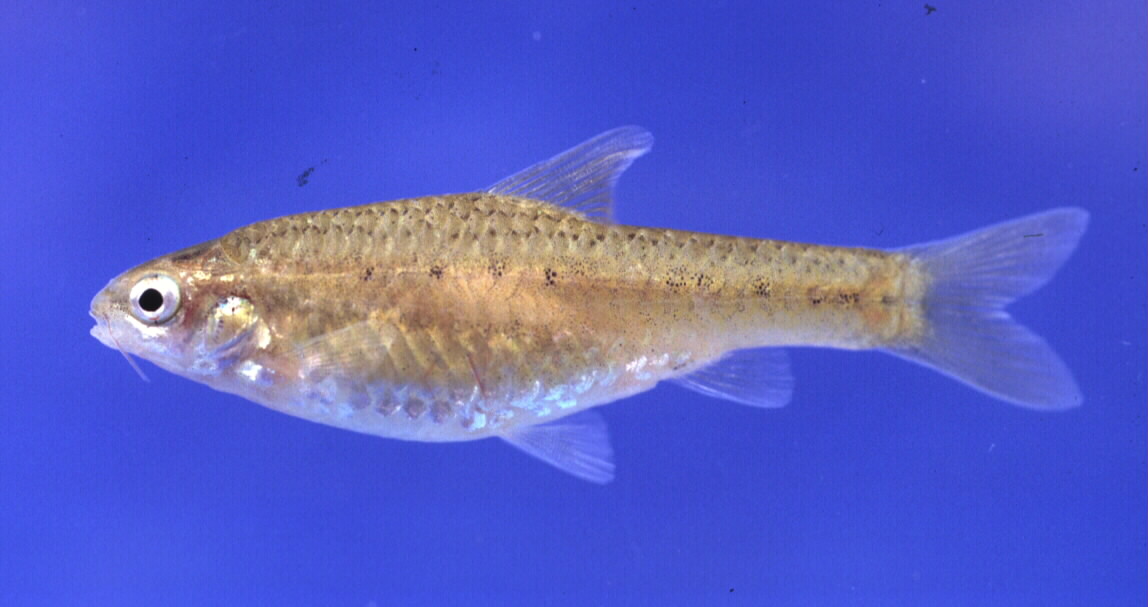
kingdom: Animalia
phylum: Chordata
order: Cypriniformes
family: Cyprinidae
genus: Enteromius
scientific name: Enteromius pallidus
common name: Goldie barb
